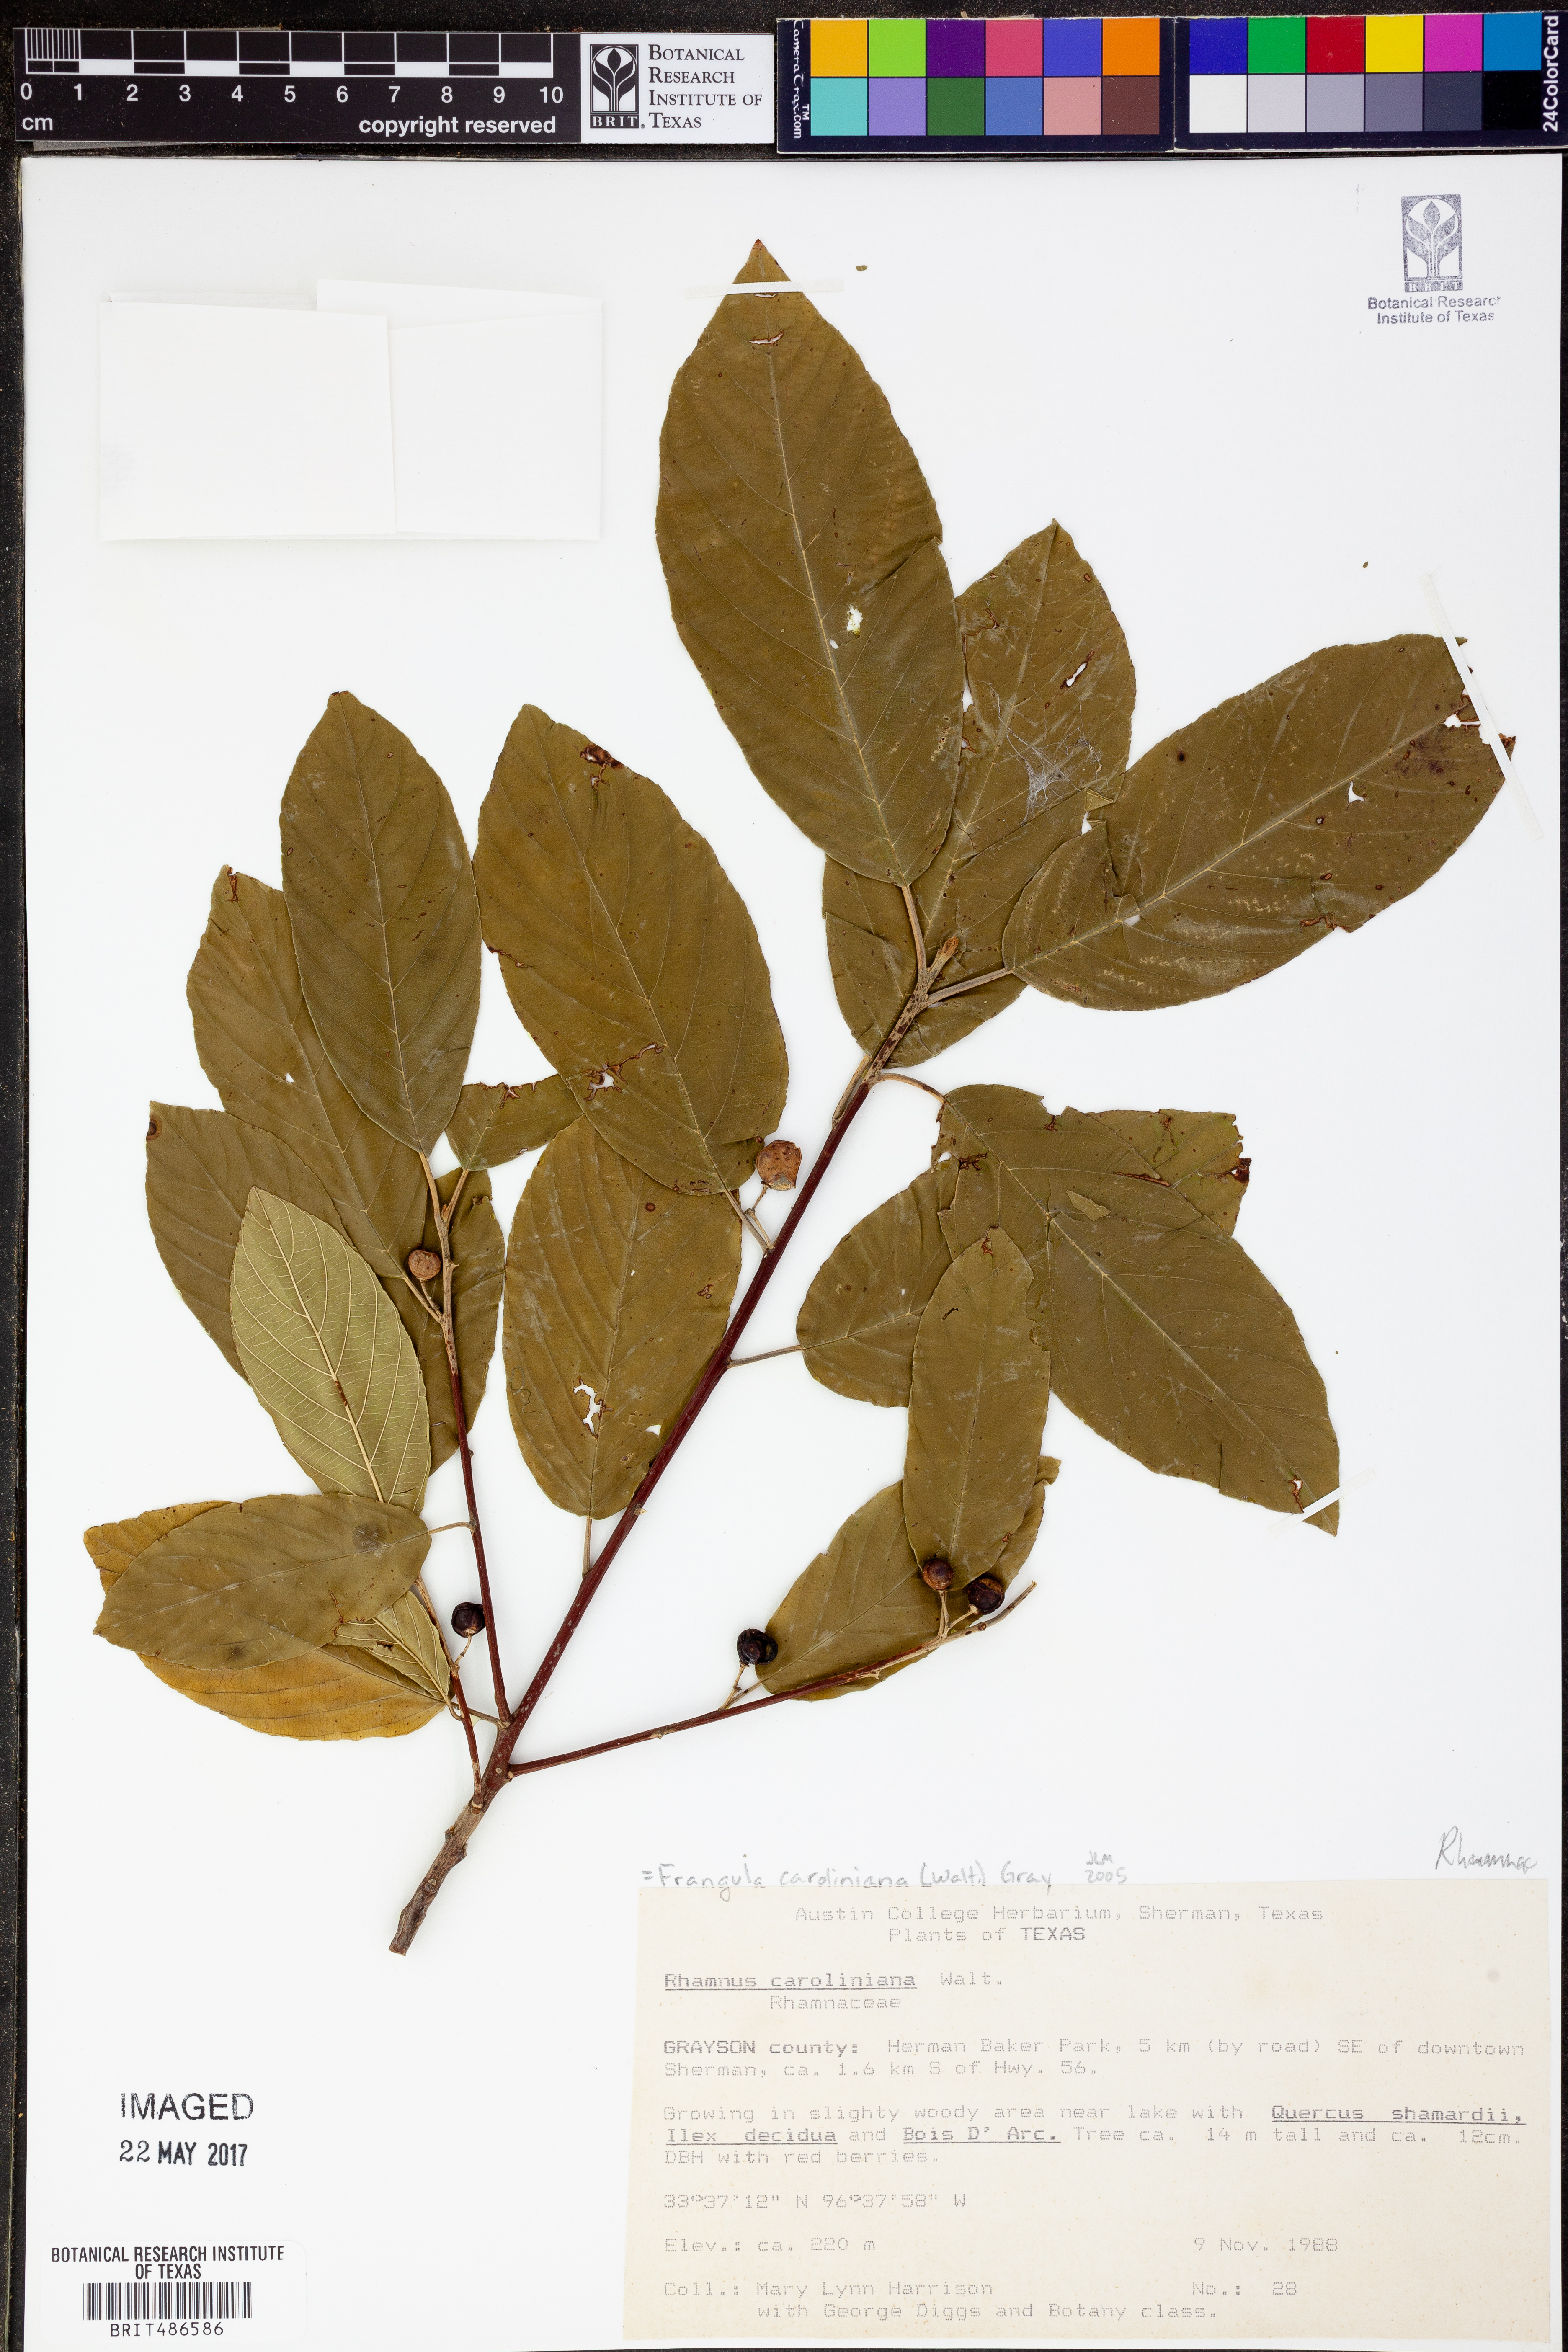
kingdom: Plantae
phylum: Tracheophyta
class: Magnoliopsida
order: Rosales
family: Rhamnaceae
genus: Frangula
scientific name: Frangula caroliniana
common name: Carolina buckthorn
